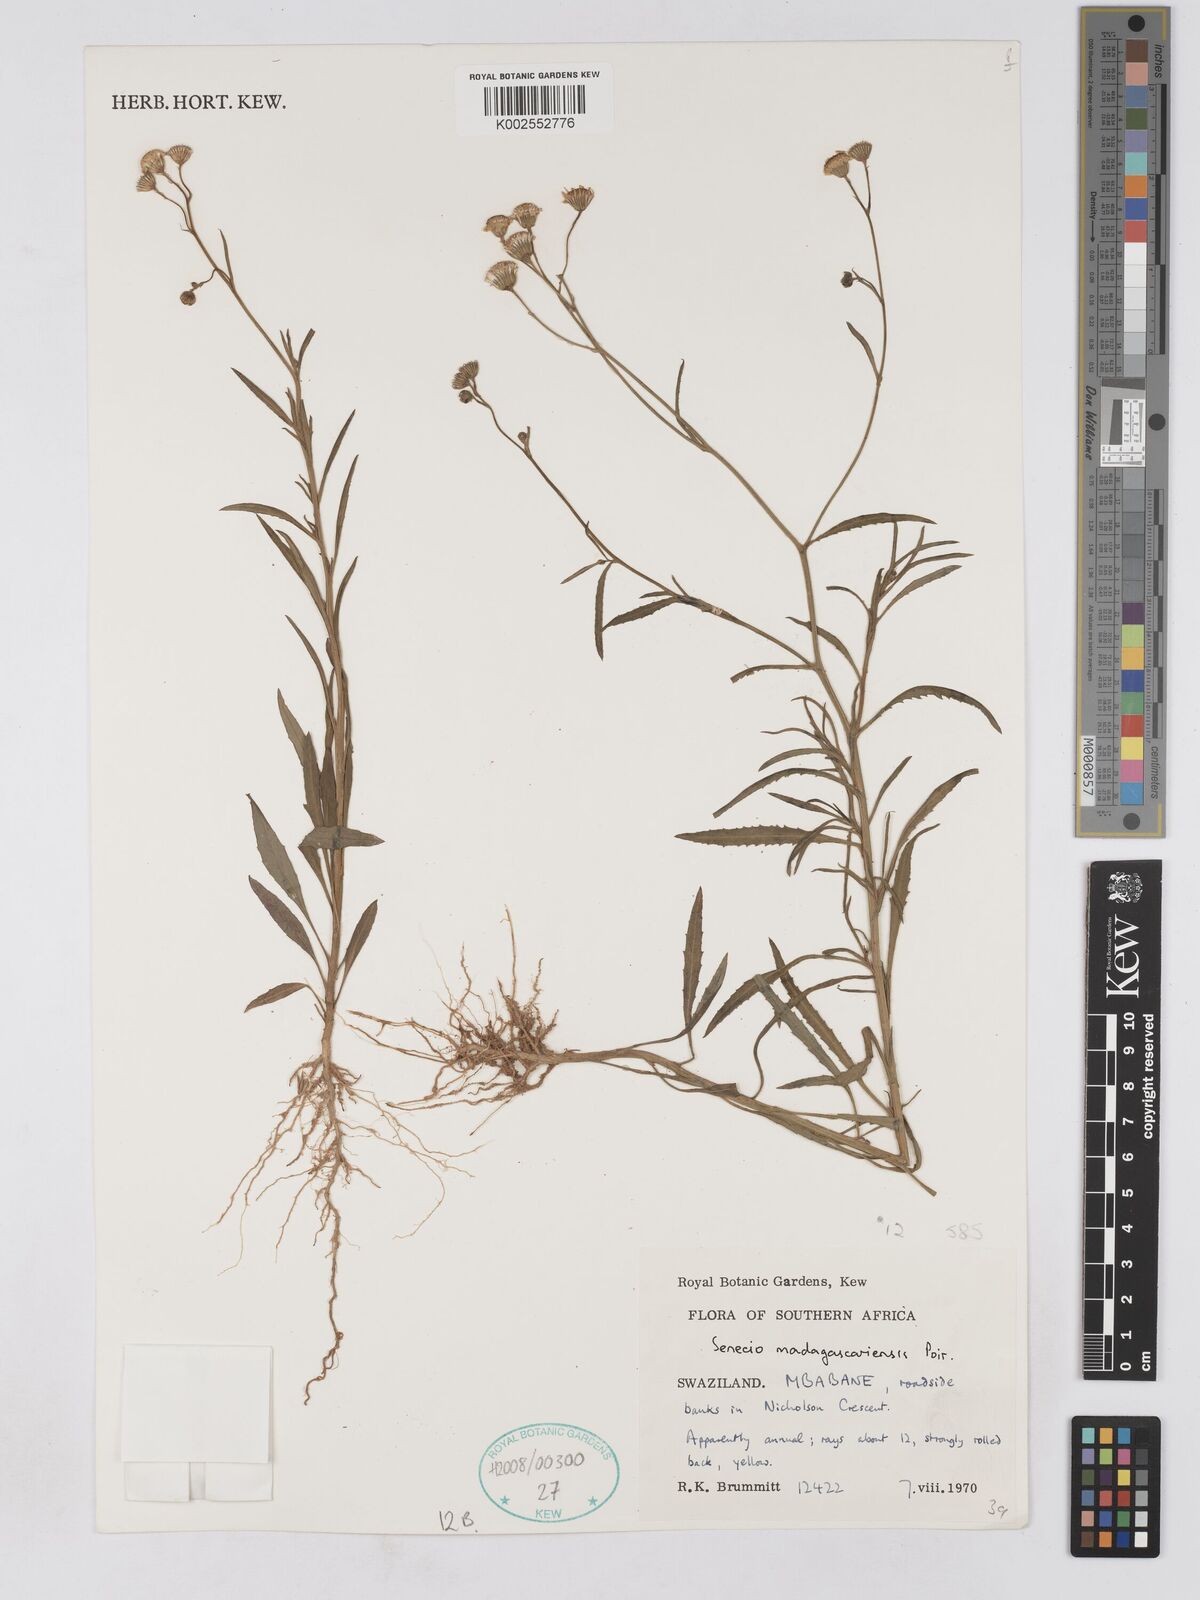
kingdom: Plantae
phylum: Tracheophyta
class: Magnoliopsida
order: Asterales
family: Asteraceae
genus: Senecio
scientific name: Senecio madagascariensis
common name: Madagascar ragwort
